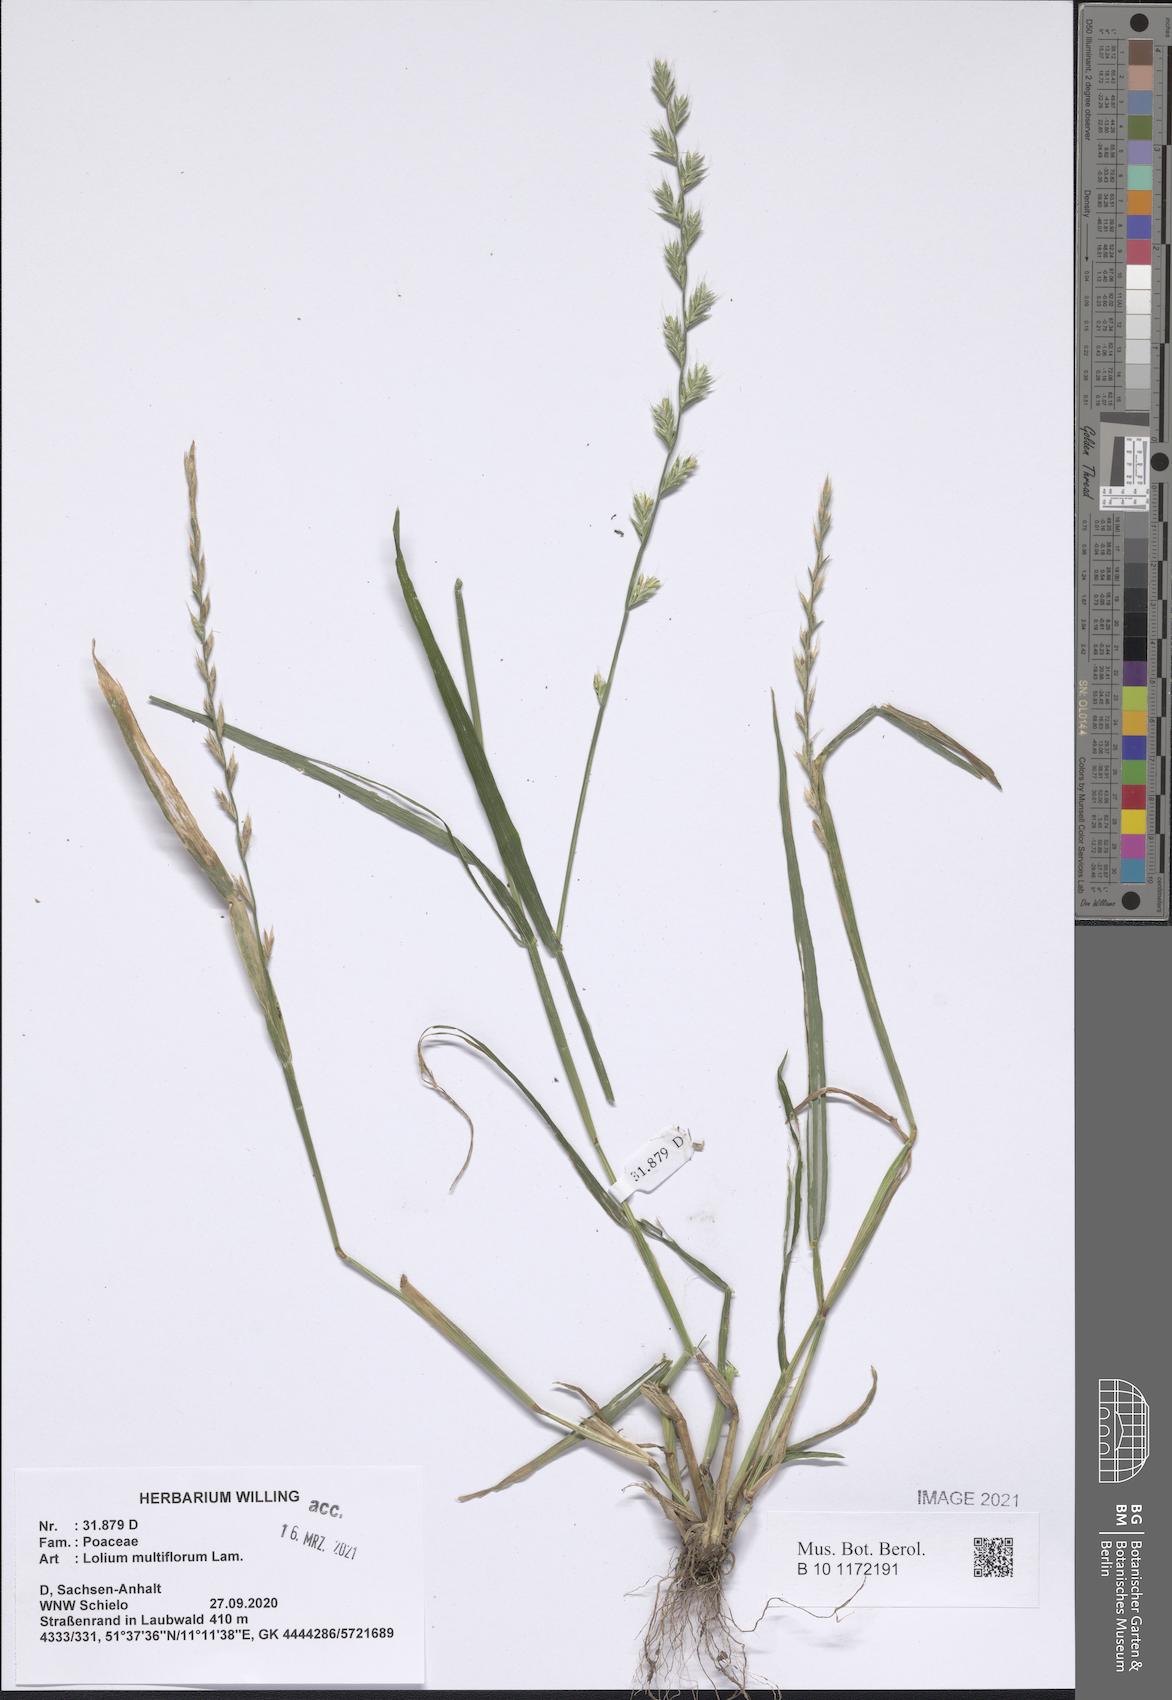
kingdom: Plantae
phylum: Tracheophyta
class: Liliopsida
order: Poales
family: Poaceae
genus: Lolium
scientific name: Lolium multiflorum
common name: Annual ryegrass
